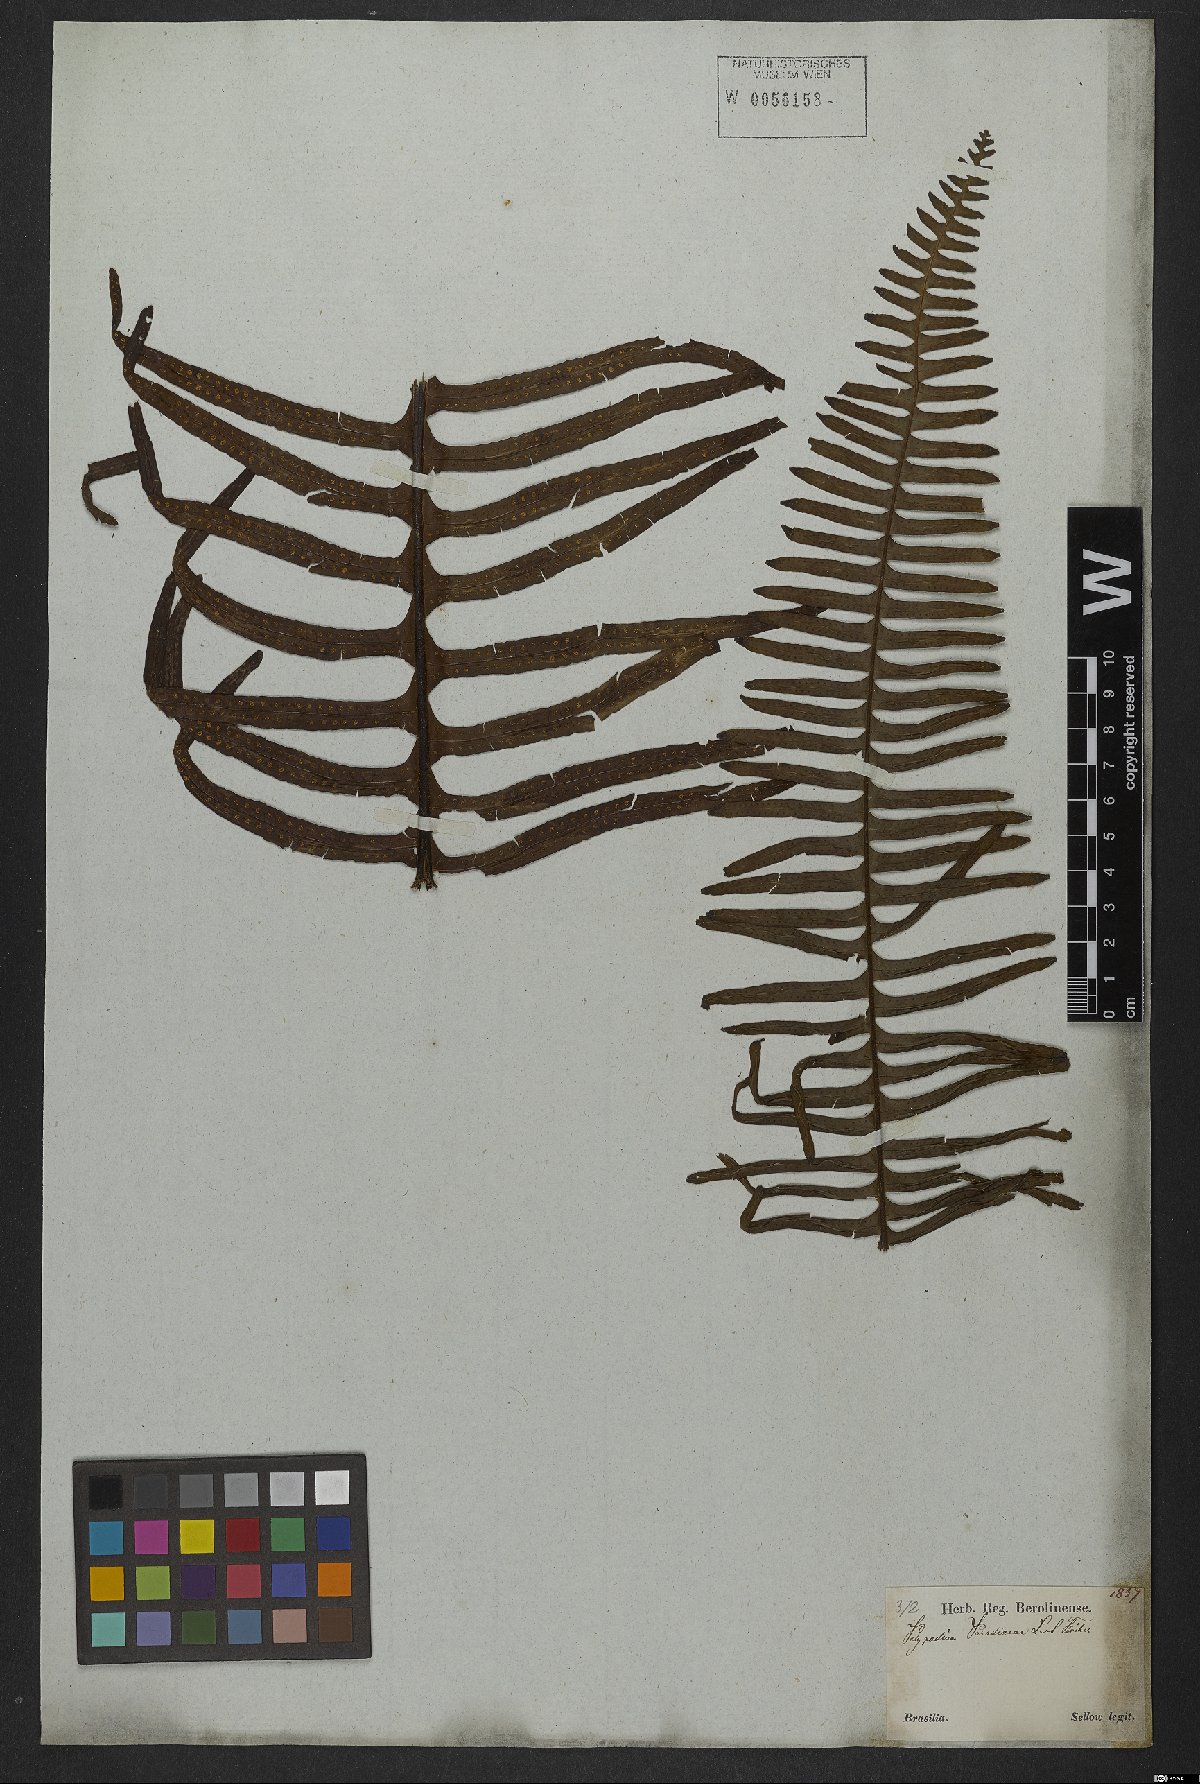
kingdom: Plantae
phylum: Tracheophyta
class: Polypodiopsida
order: Polypodiales
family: Polypodiaceae
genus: Pecluma
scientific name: Pecluma paradiseae
